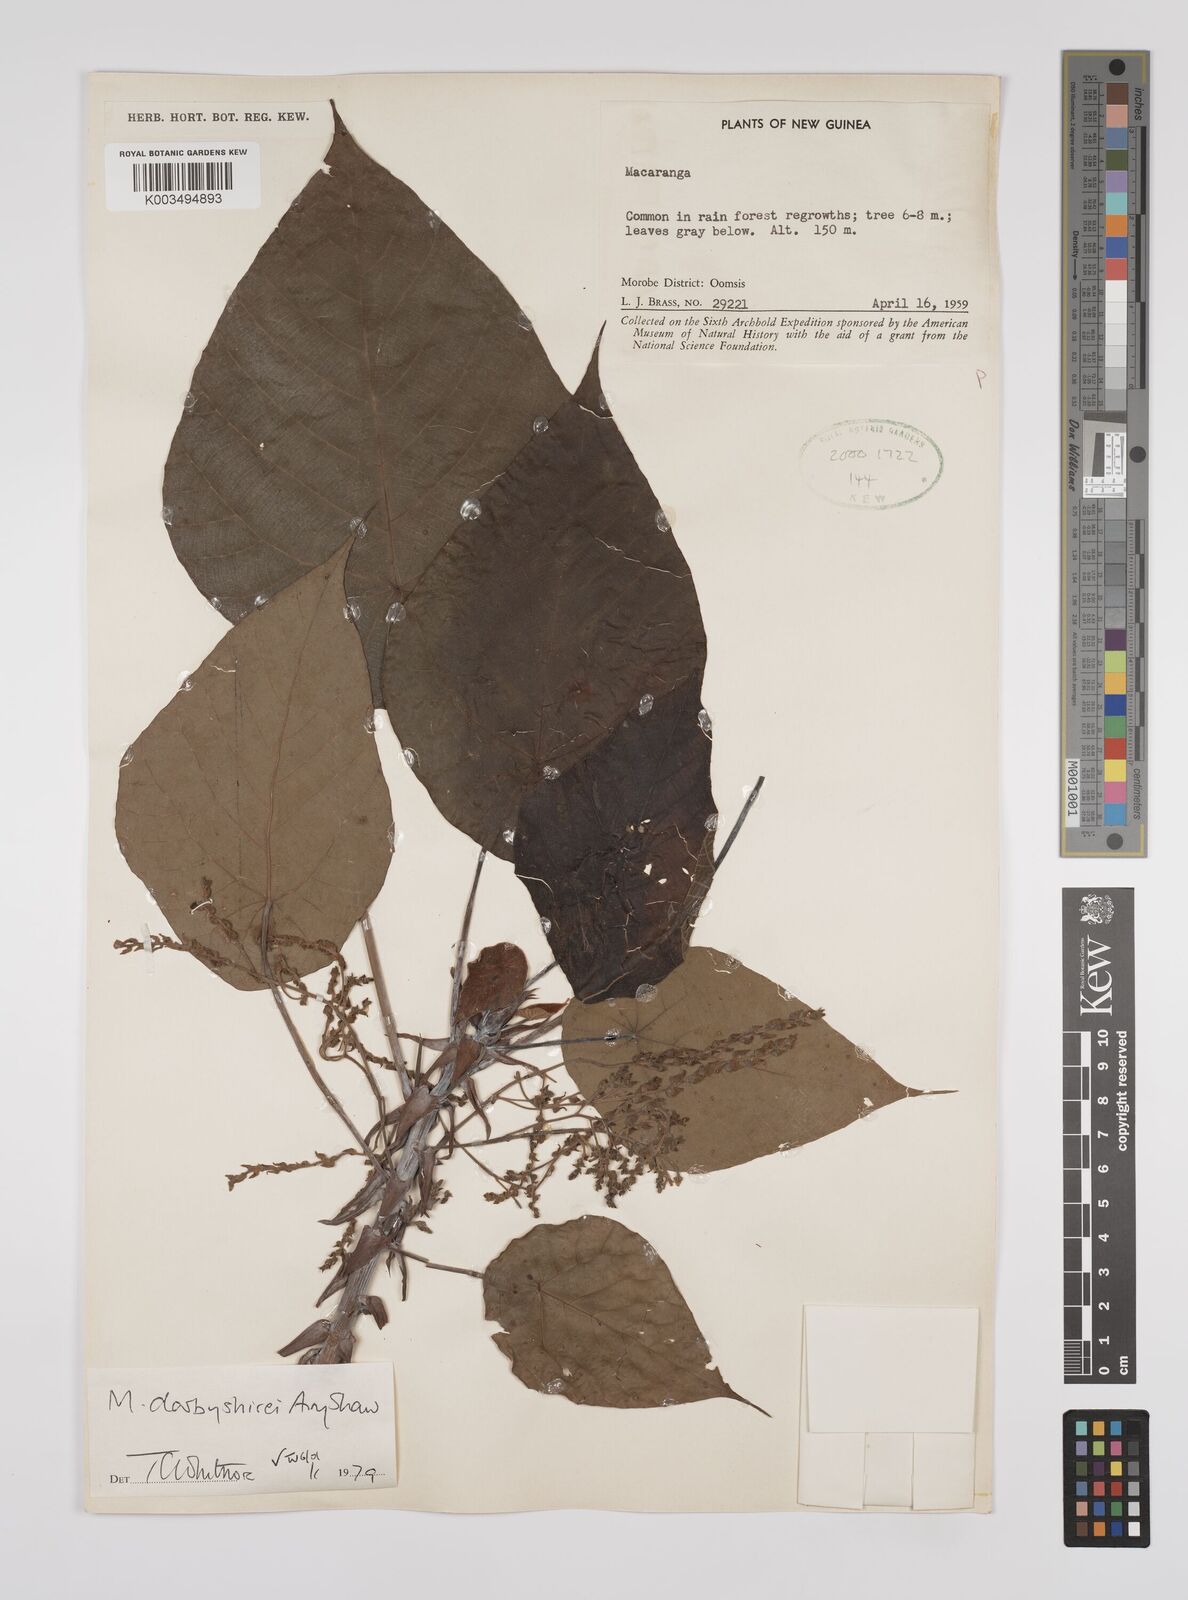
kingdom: Plantae
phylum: Tracheophyta
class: Magnoliopsida
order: Malpighiales
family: Euphorbiaceae
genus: Macaranga
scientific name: Macaranga darbyshirei
